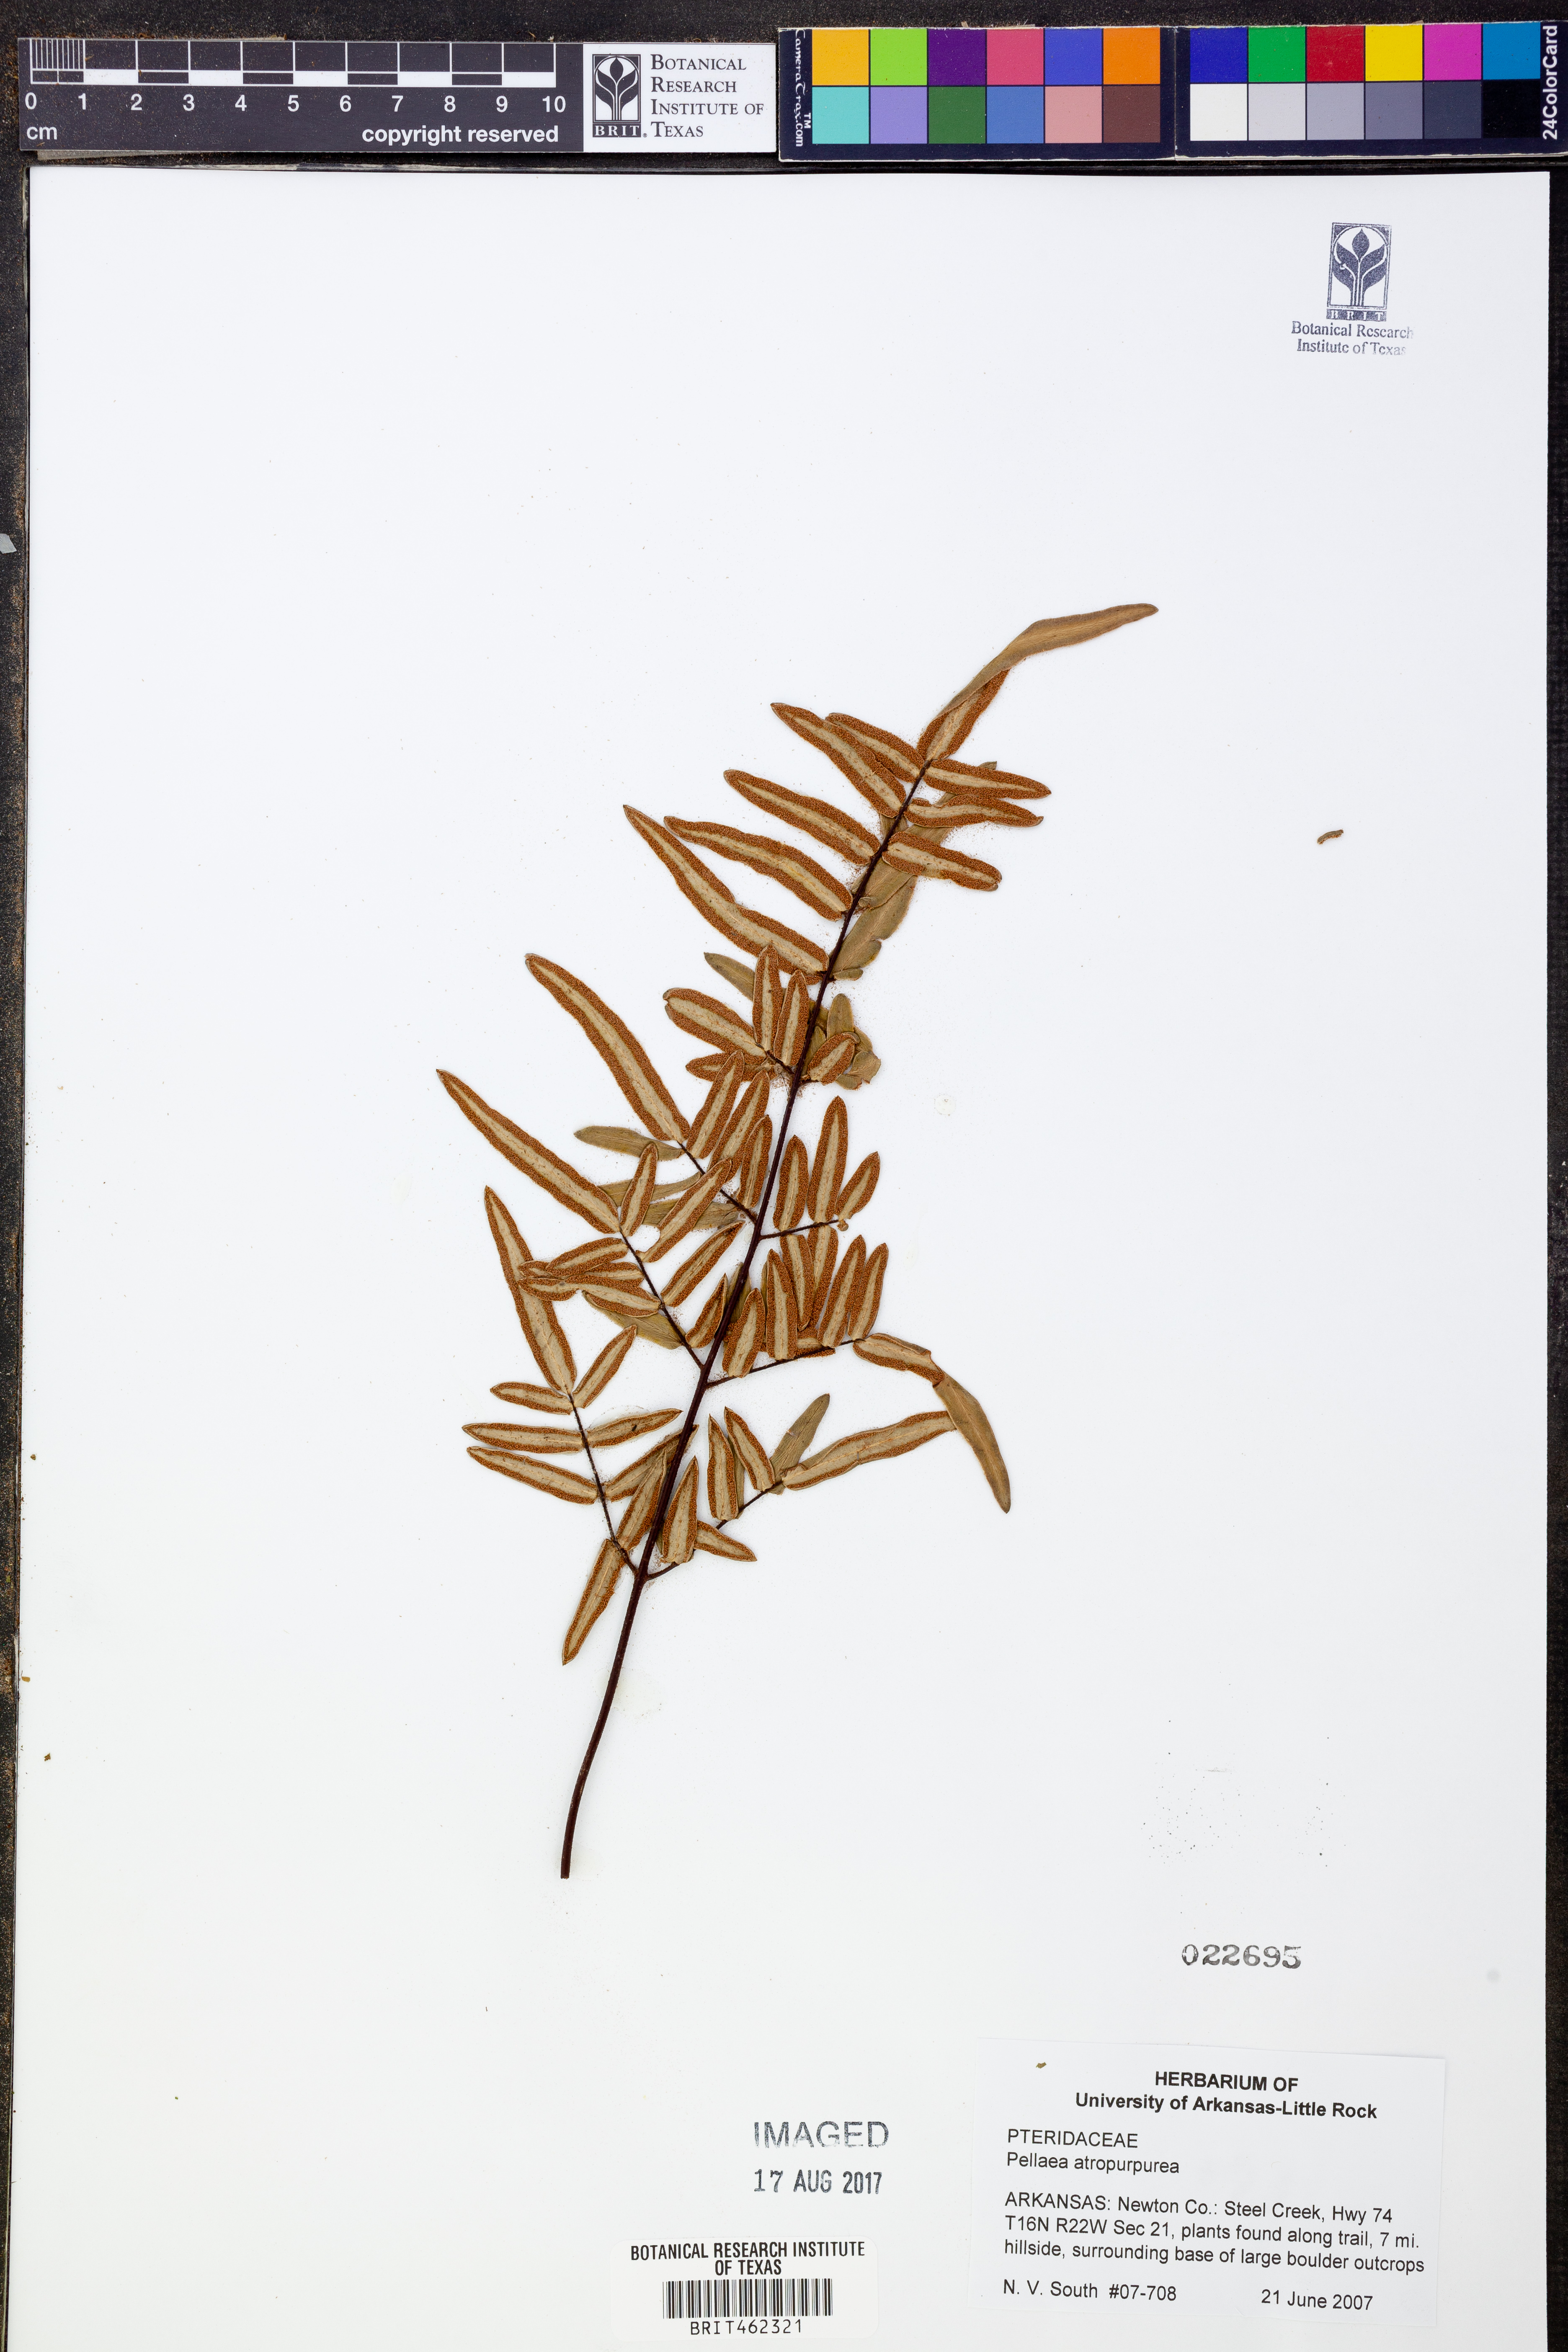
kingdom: Plantae
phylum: Tracheophyta
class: Polypodiopsida
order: Polypodiales
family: Pteridaceae
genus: Pellaea
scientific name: Pellaea atropurpurea
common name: Hairy cliffbrake
